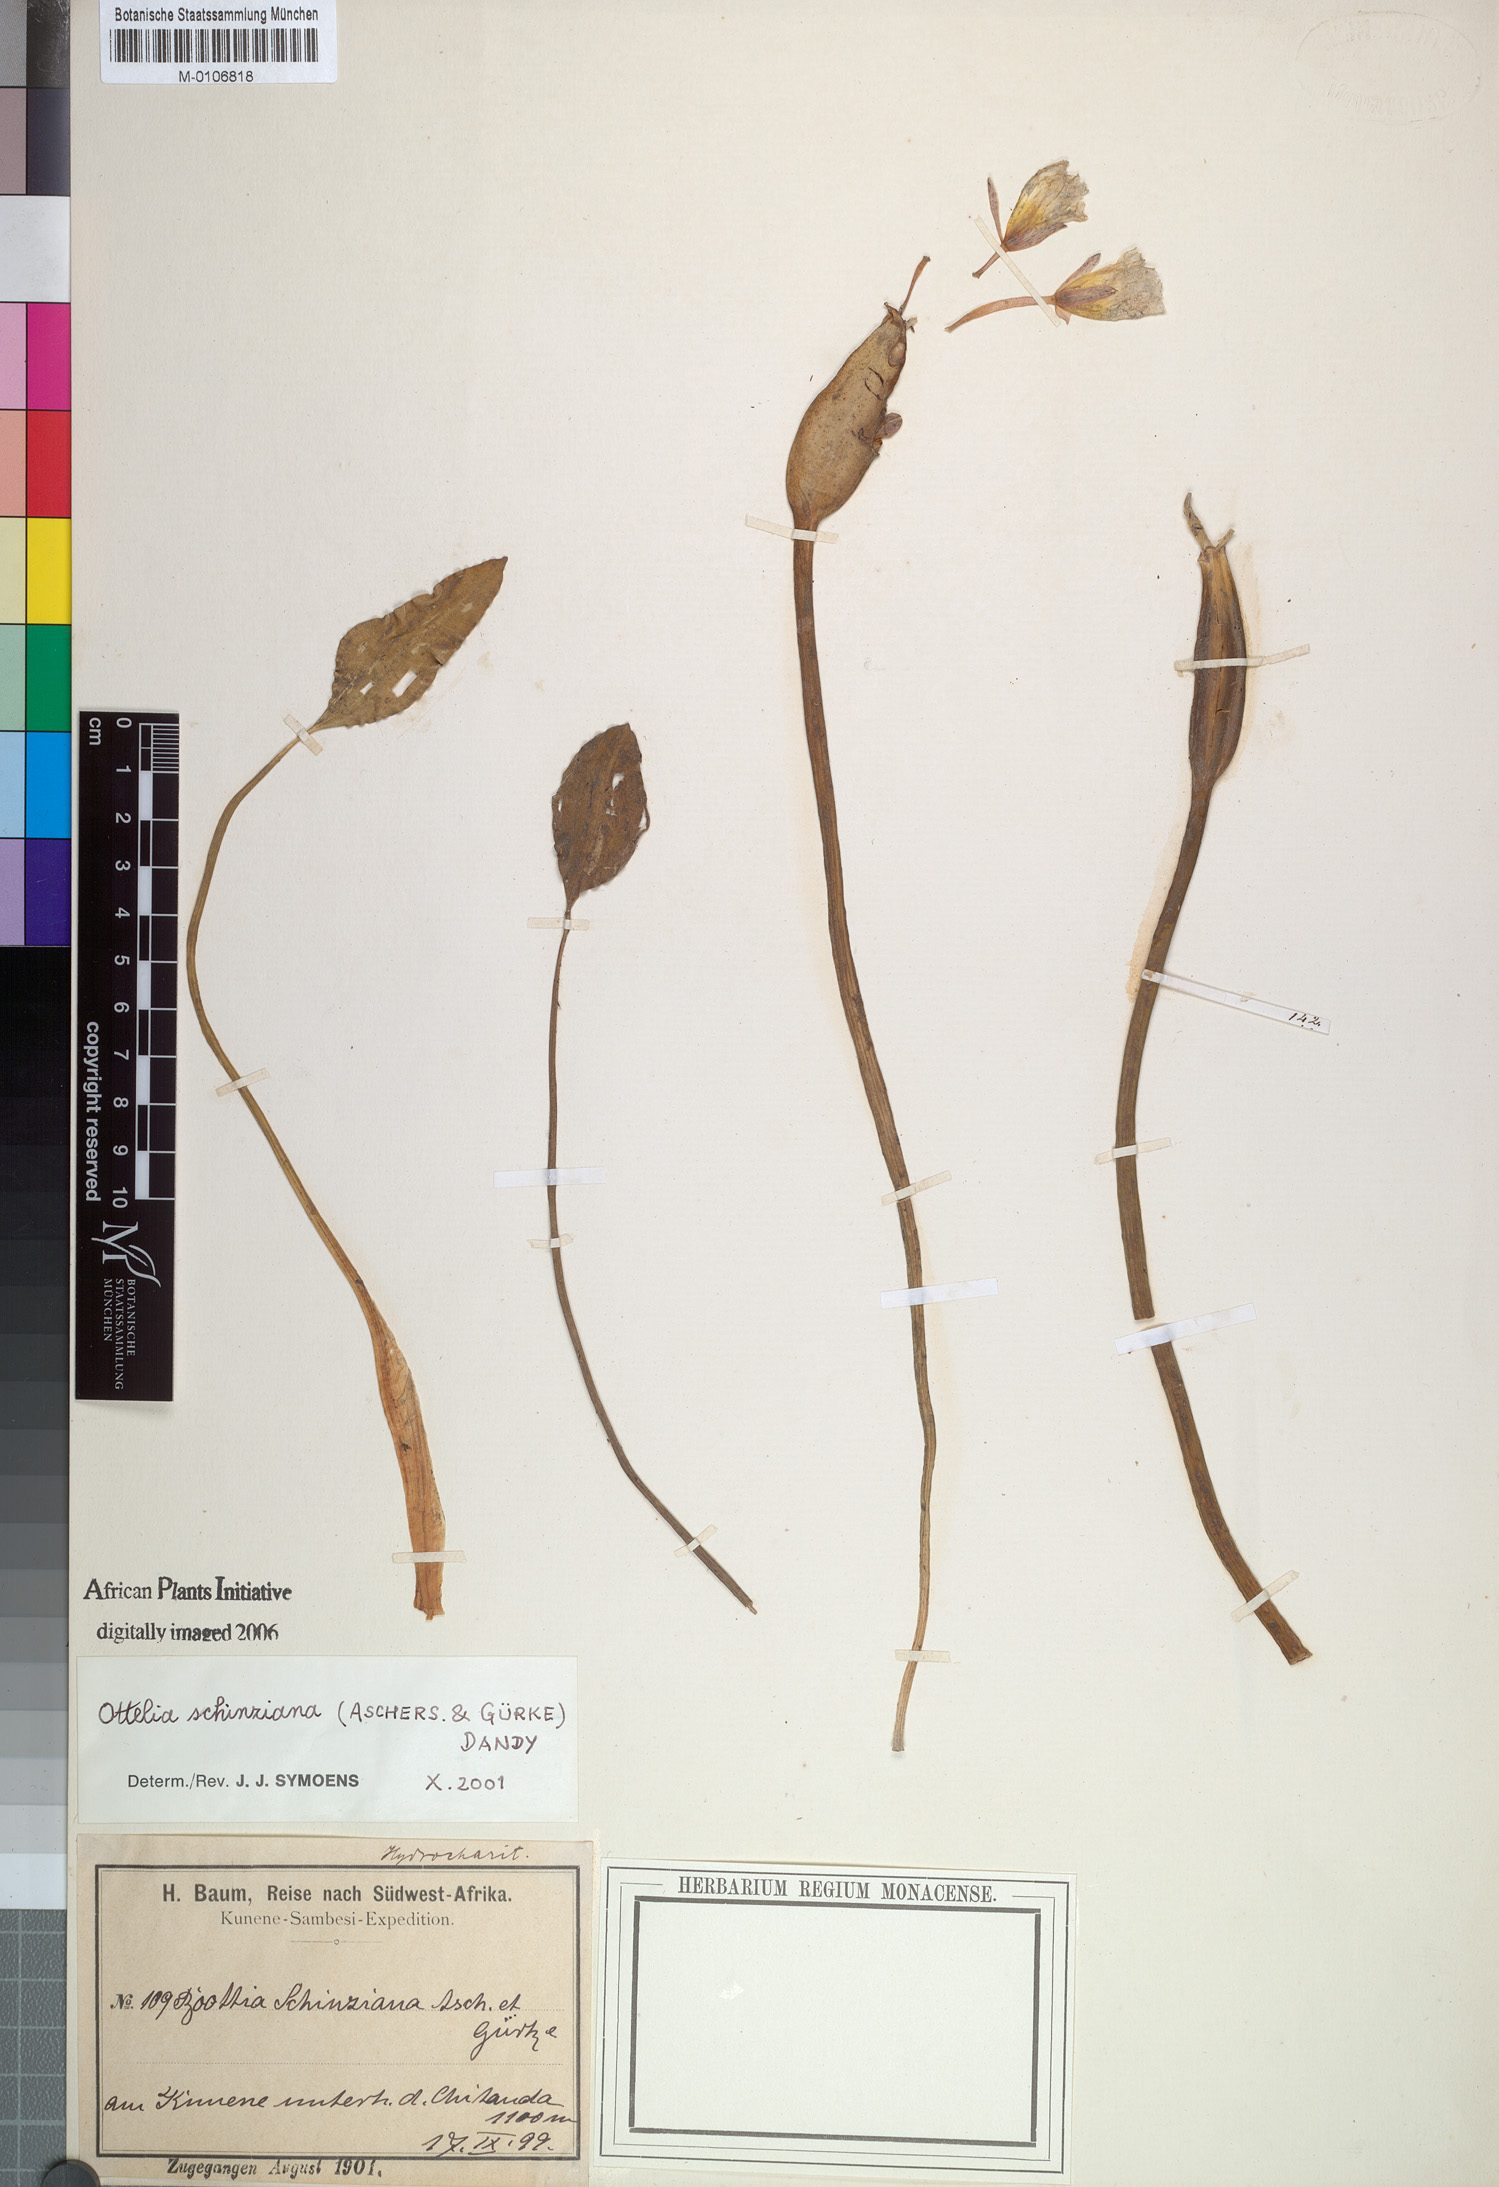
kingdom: Plantae
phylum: Tracheophyta
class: Liliopsida
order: Alismatales
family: Hydrocharitaceae
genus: Ottelia
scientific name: Ottelia exserta
